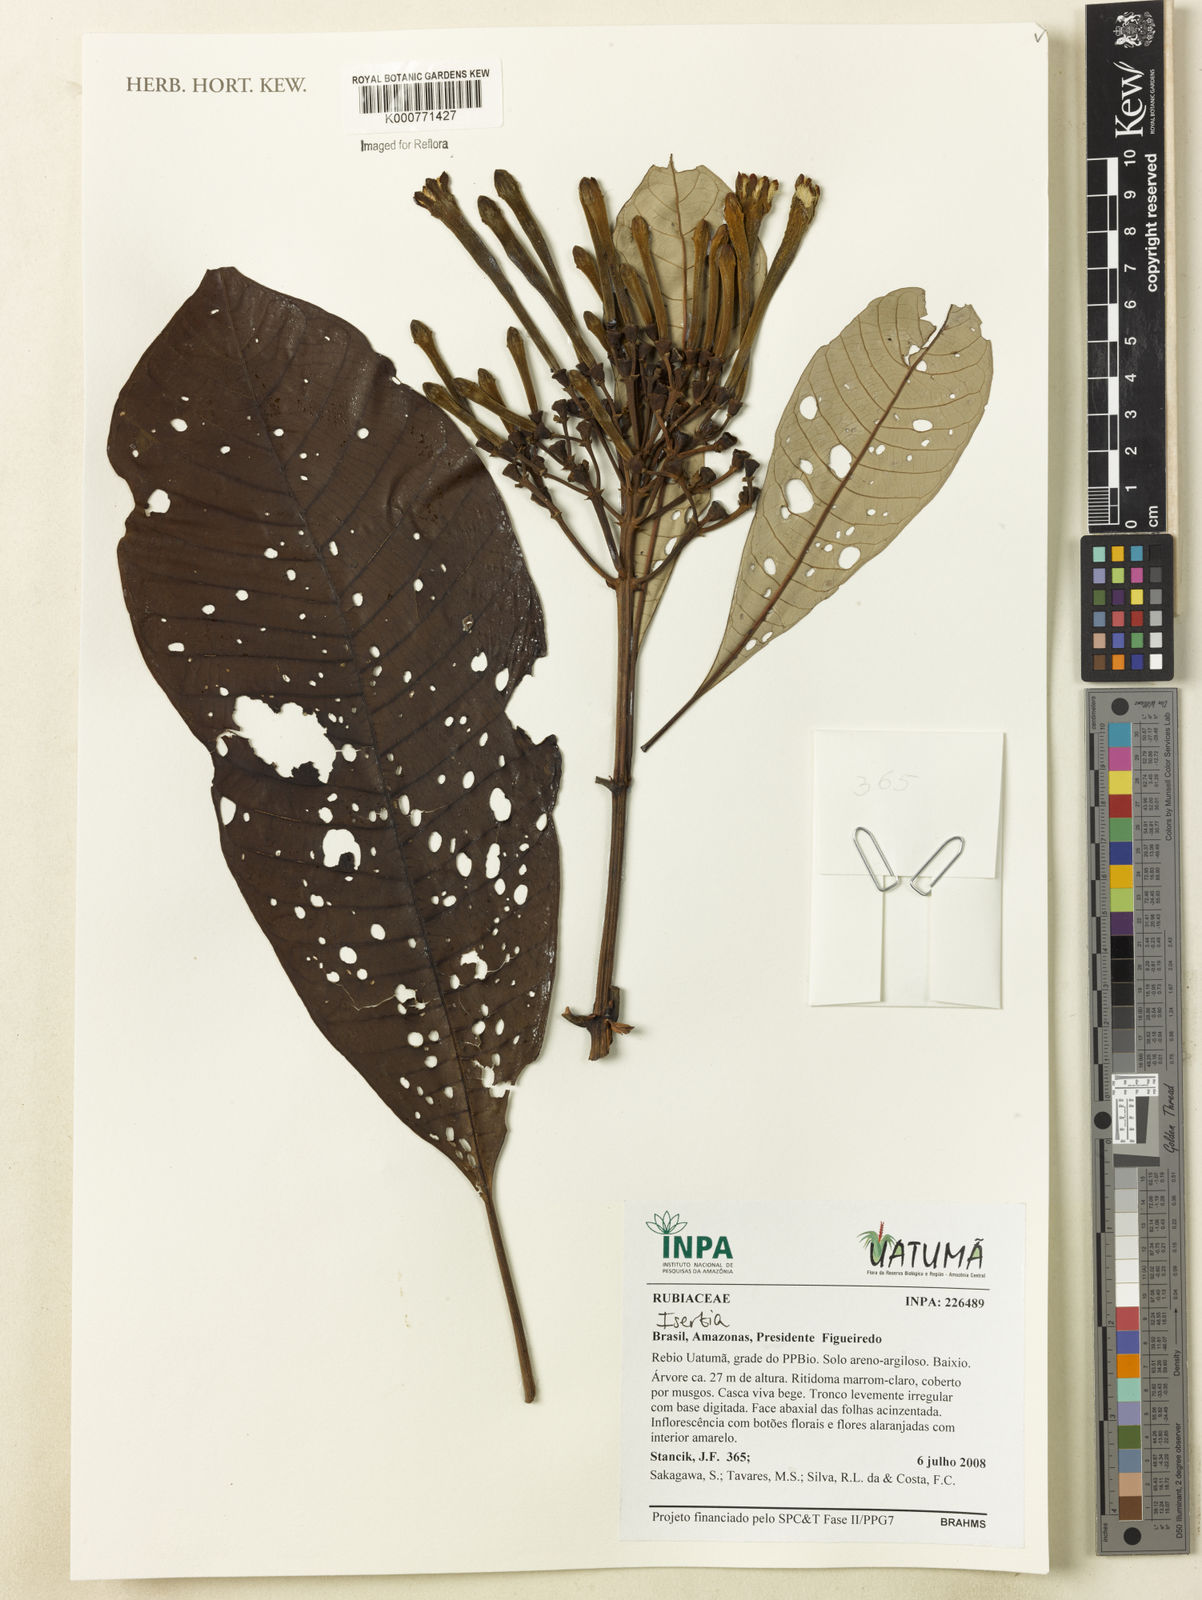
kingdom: Plantae
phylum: Tracheophyta
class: Magnoliopsida
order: Gentianales
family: Rubiaceae
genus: Isertia
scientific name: Isertia
